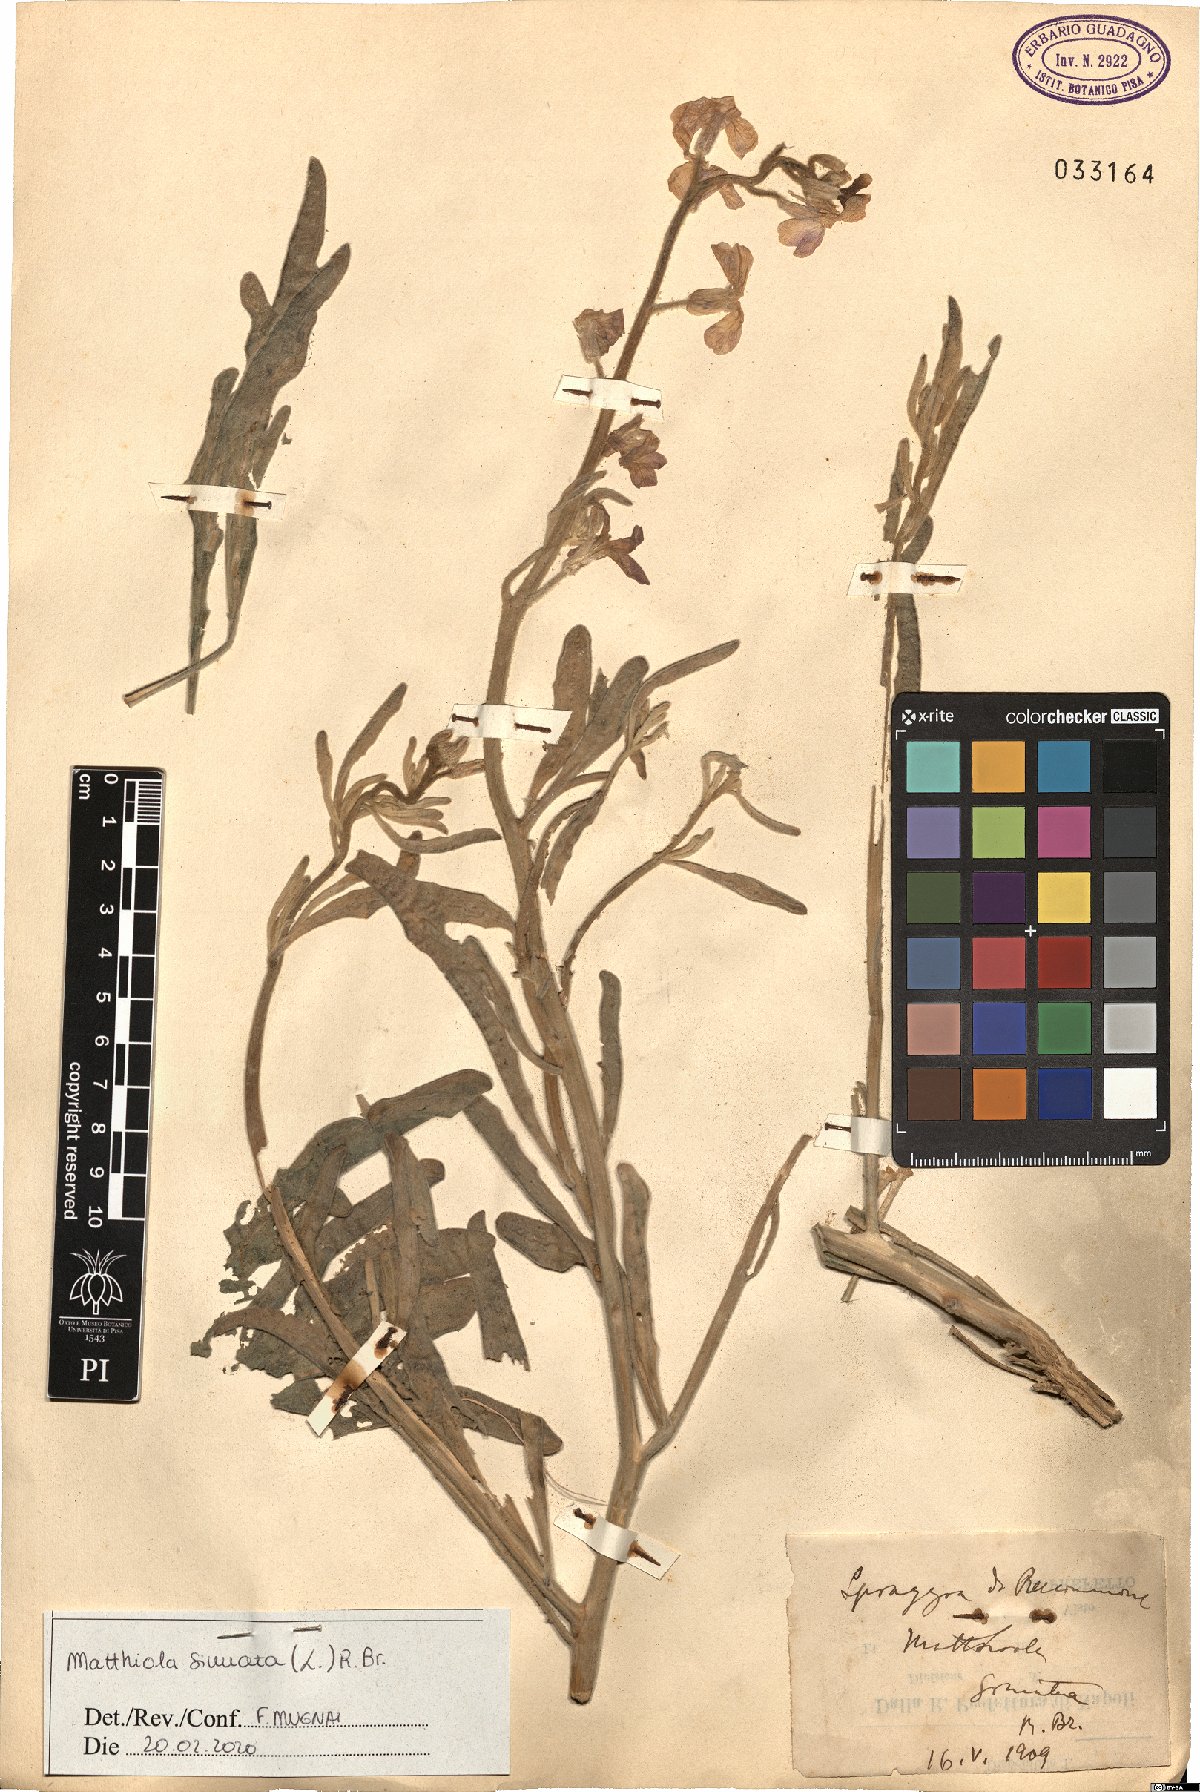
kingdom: Plantae
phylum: Tracheophyta
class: Magnoliopsida
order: Brassicales
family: Brassicaceae
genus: Matthiola
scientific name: Matthiola sinuata
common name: Sea stock
